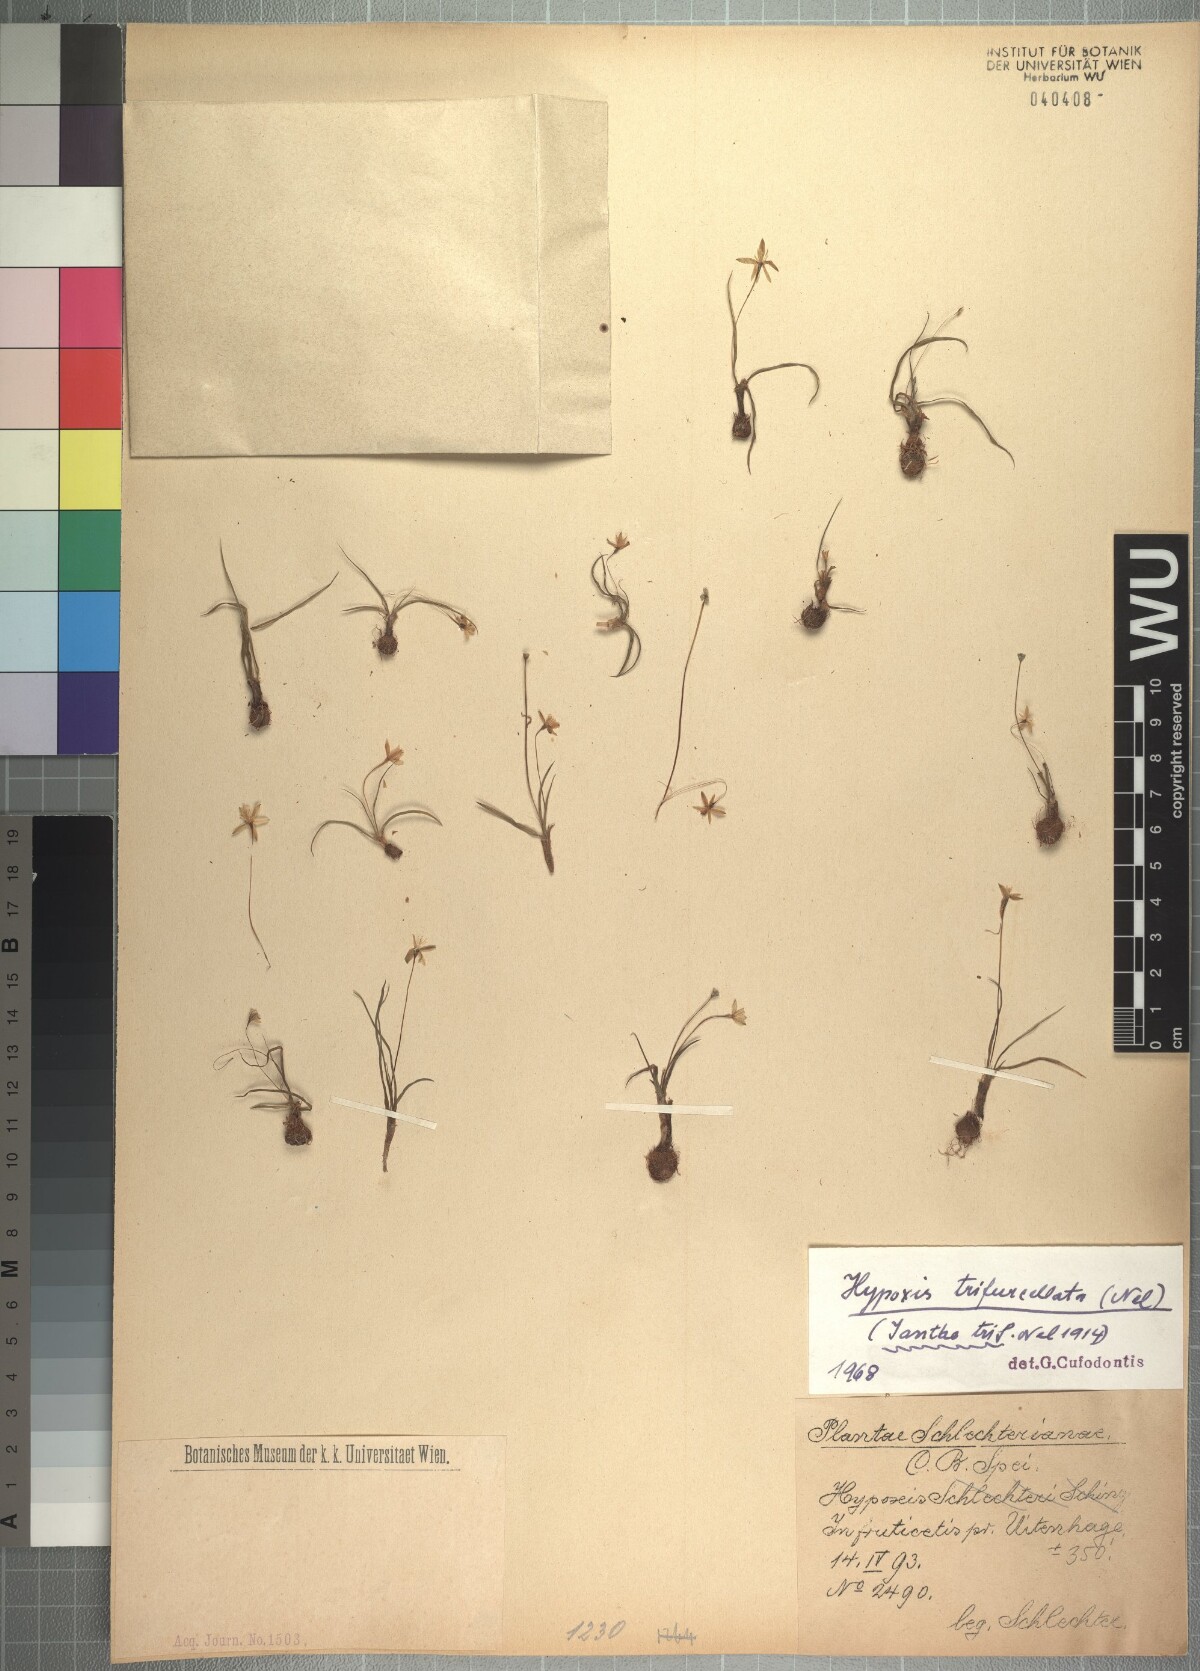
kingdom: Plantae
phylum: Tracheophyta
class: Liliopsida
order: Asparagales
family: Hypoxidaceae
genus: Pauridia
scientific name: Pauridia trifurcillata
